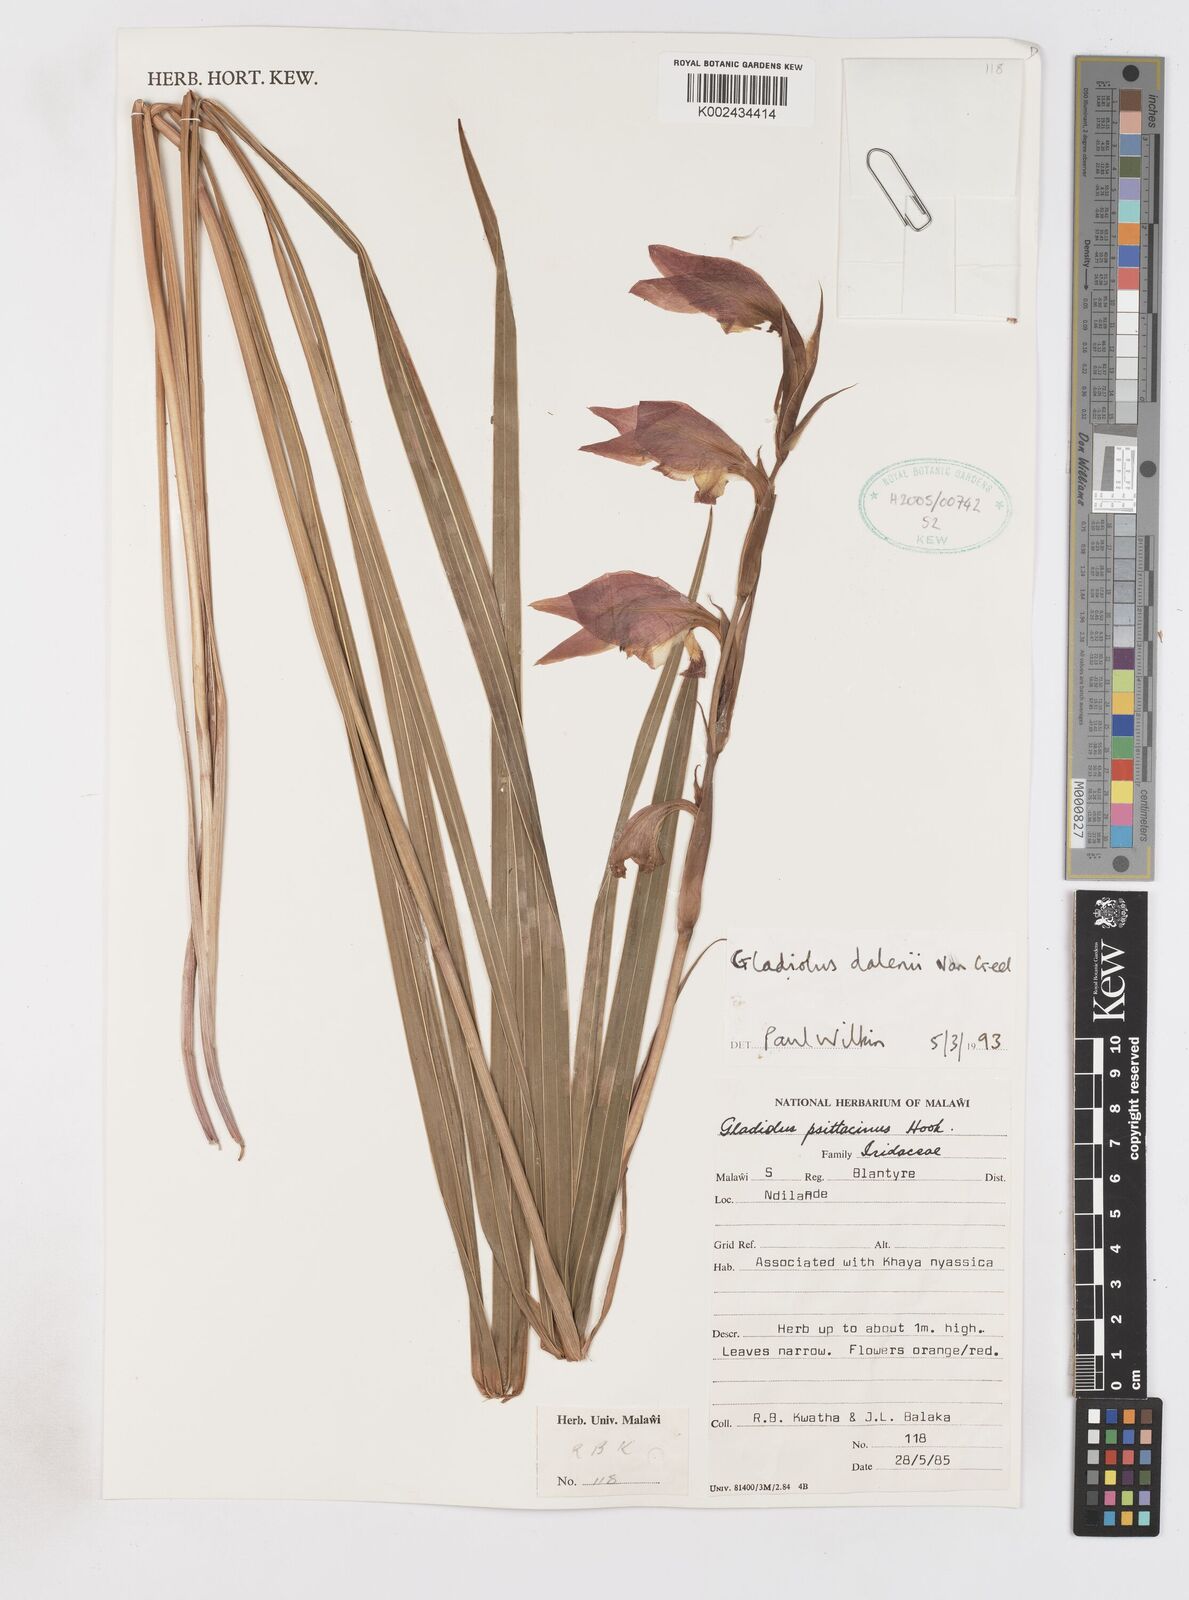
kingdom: Plantae
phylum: Tracheophyta
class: Liliopsida
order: Asparagales
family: Iridaceae
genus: Gladiolus
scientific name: Gladiolus dalenii
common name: Cornflag
